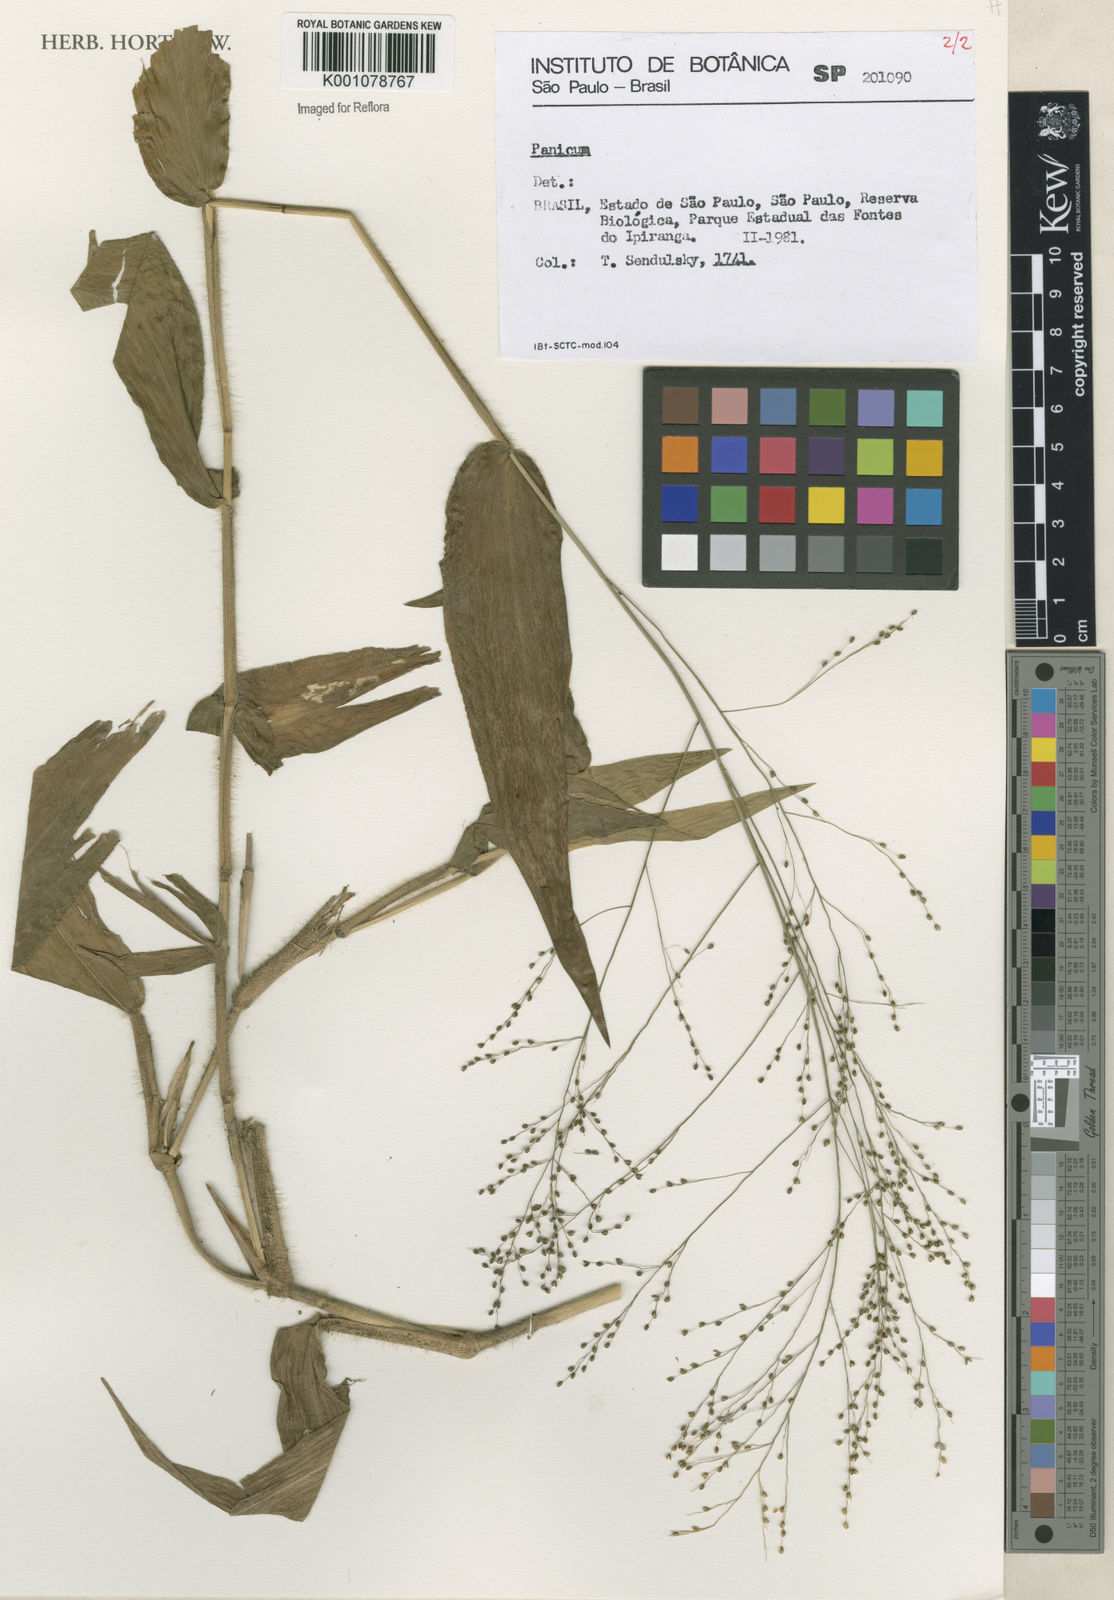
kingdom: Plantae
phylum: Tracheophyta
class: Liliopsida
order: Poales
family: Poaceae
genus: Panicum
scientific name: Panicum
